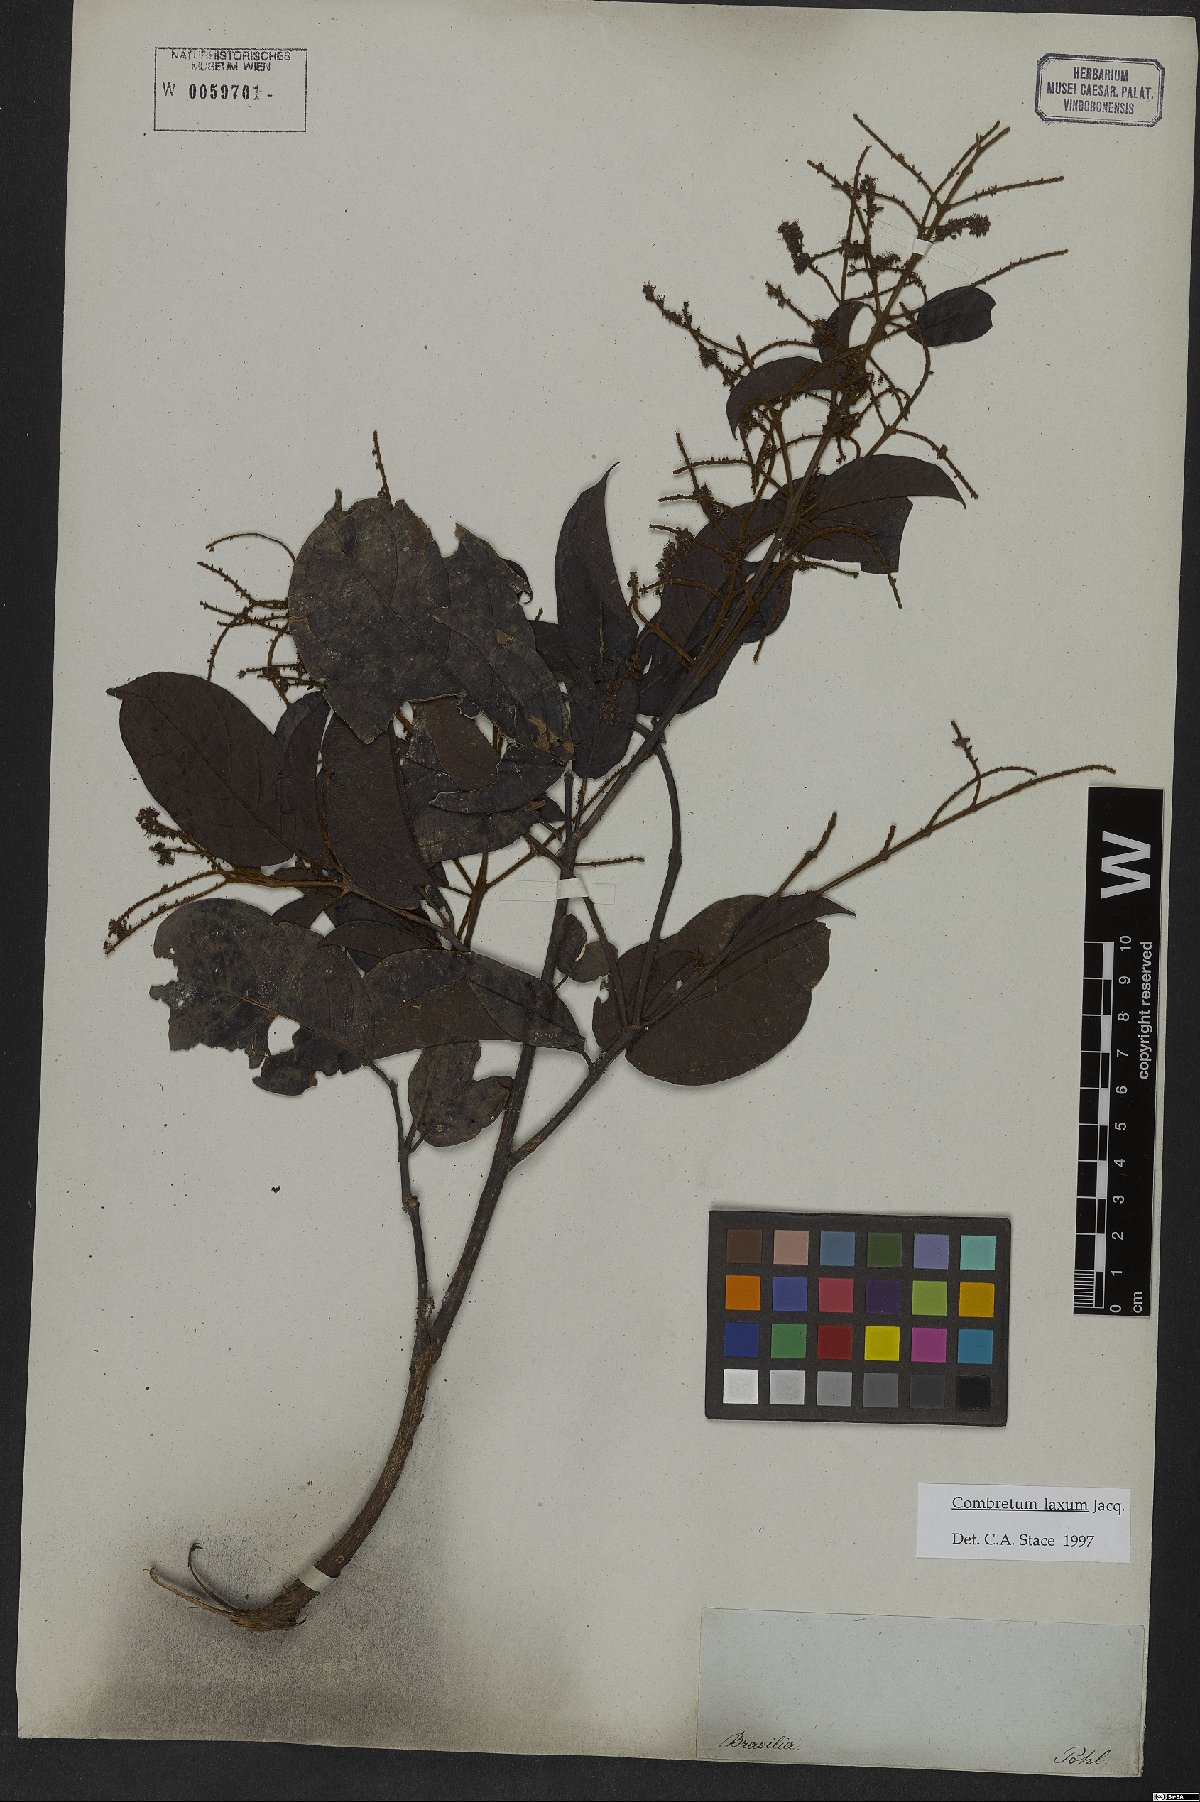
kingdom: Plantae
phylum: Tracheophyta
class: Magnoliopsida
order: Myrtales
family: Combretaceae
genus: Combretum
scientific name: Combretum laxum
